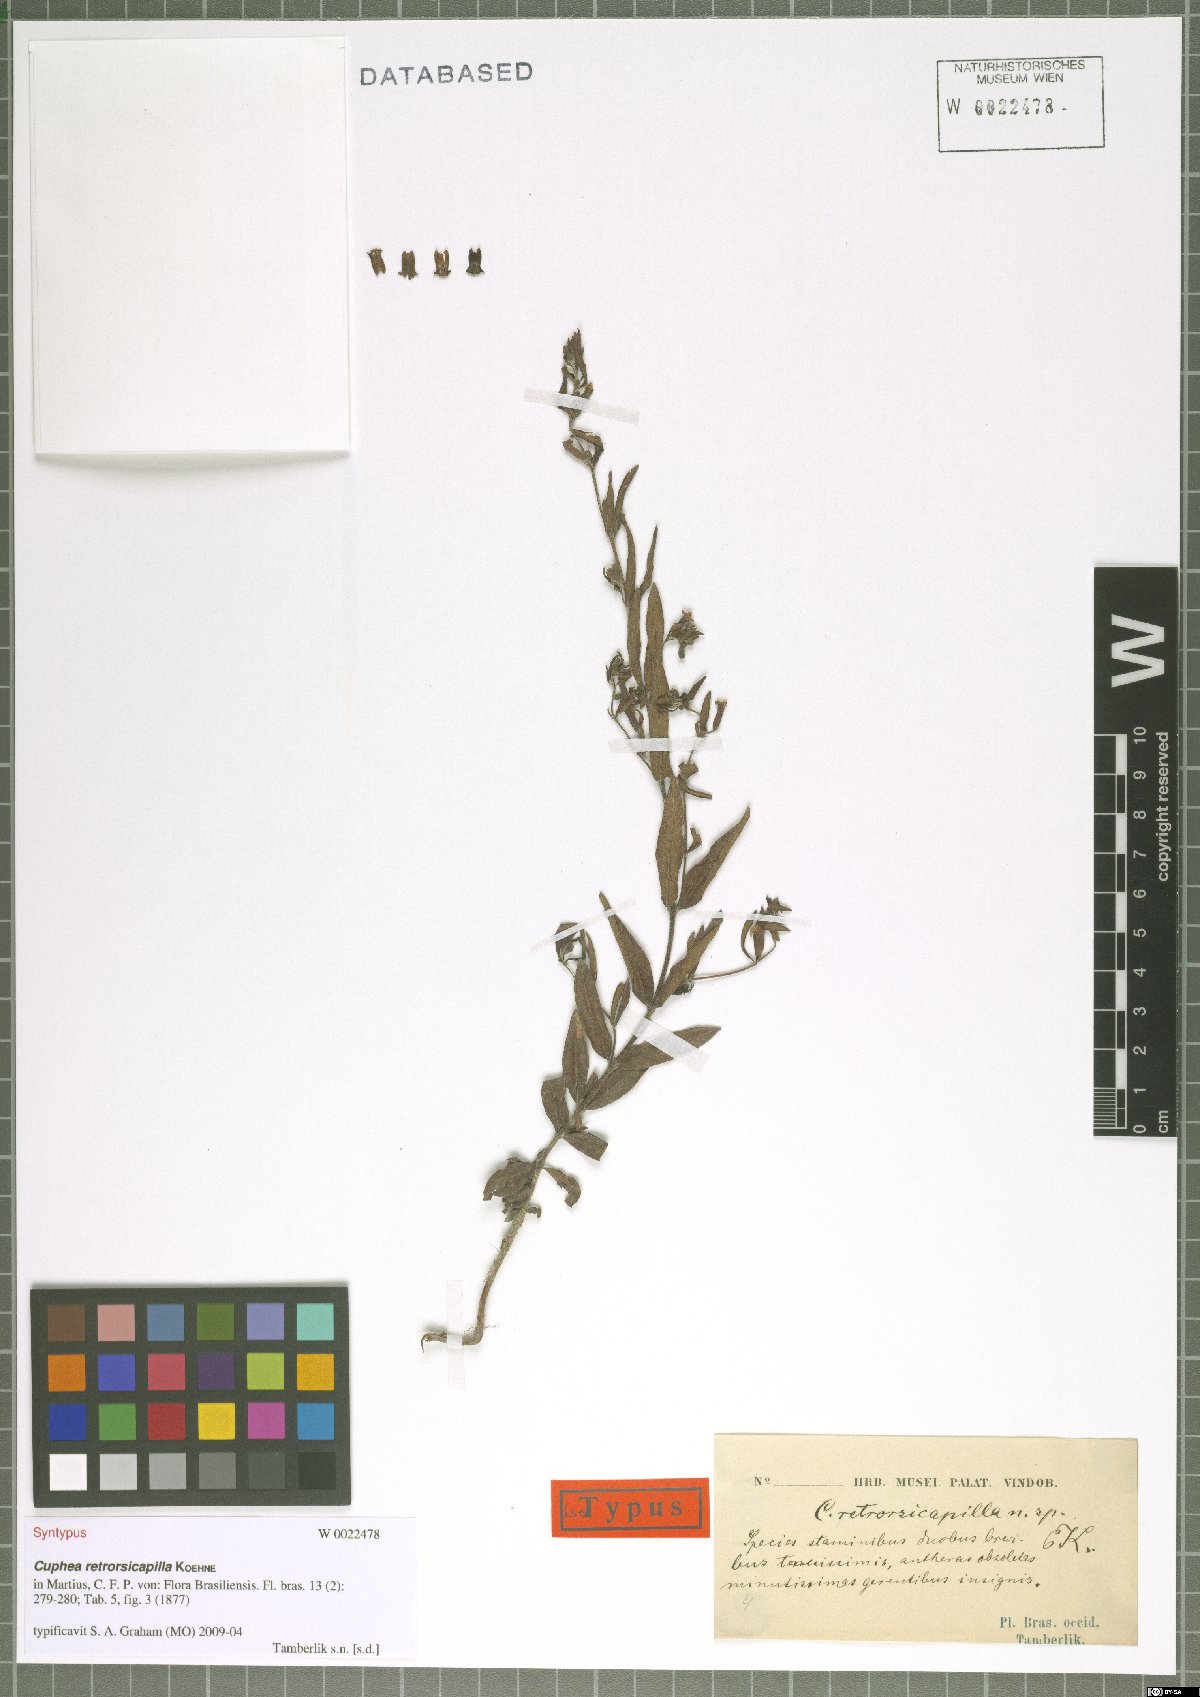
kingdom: Plantae
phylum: Tracheophyta
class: Magnoliopsida
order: Myrtales
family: Lythraceae
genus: Cuphea
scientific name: Cuphea retrorsicapilla
